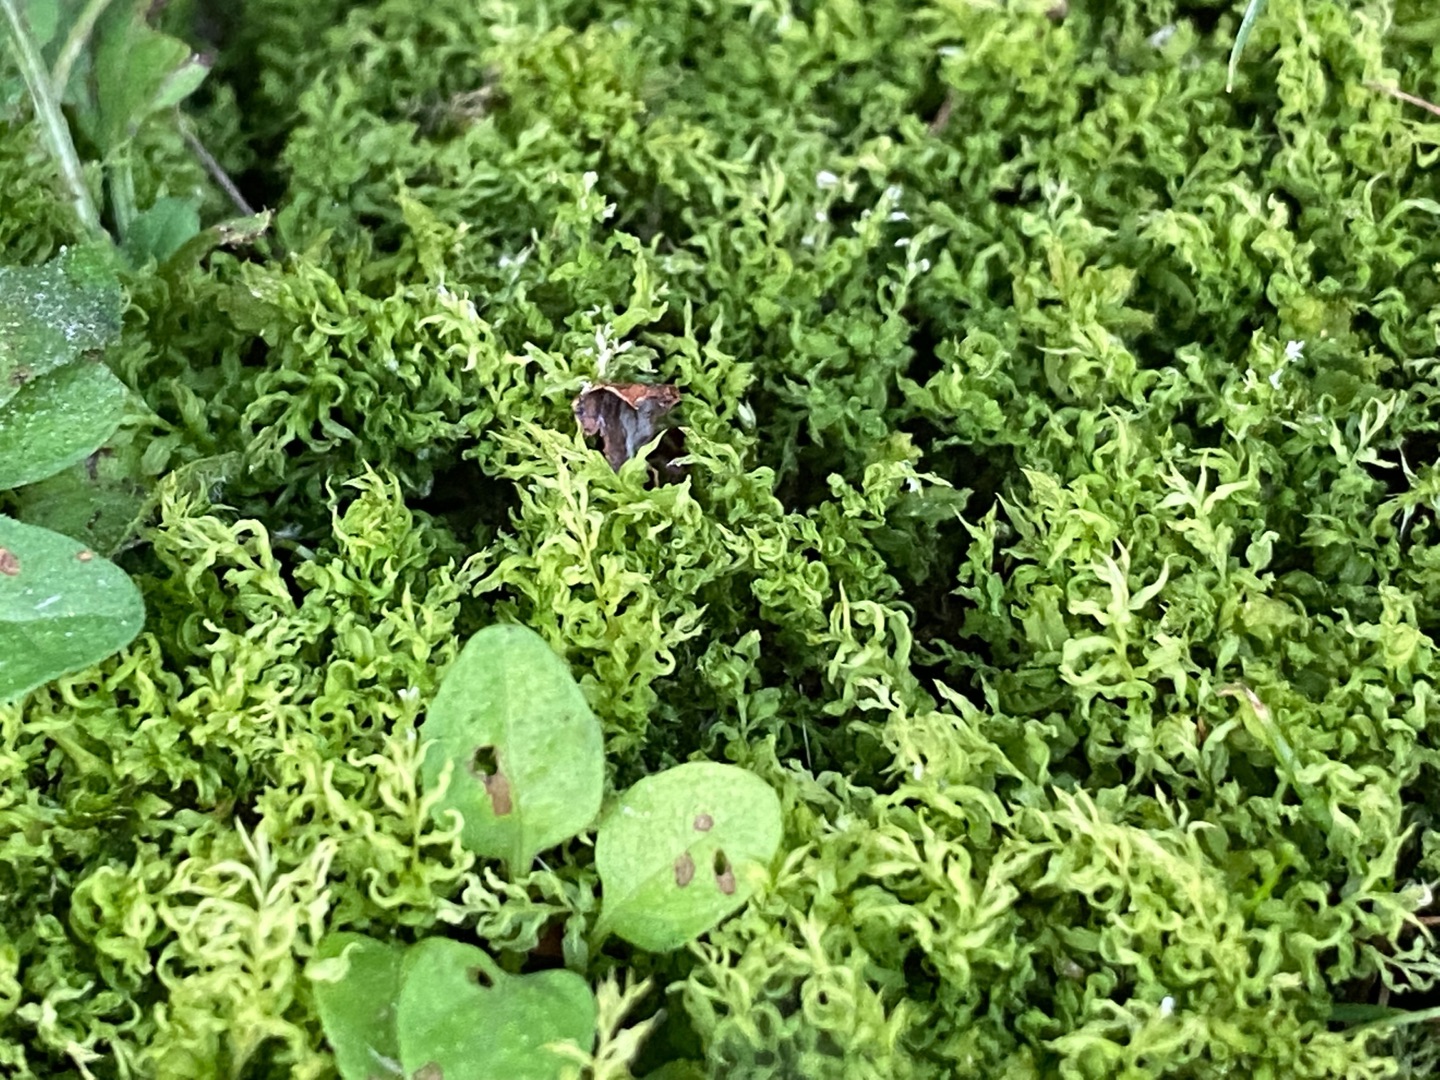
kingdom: Plantae
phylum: Bryophyta
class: Bryopsida
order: Bryales
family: Mniaceae
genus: Plagiomnium
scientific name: Plagiomnium undulatum
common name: Bølget krybstjerne
